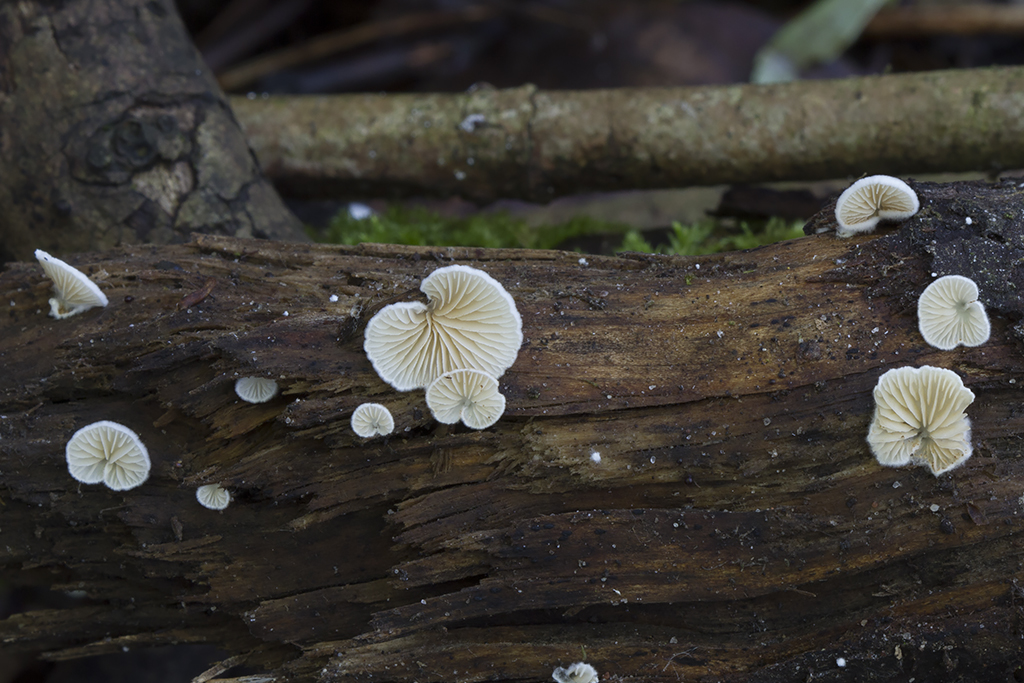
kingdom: Fungi
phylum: Basidiomycota
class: Agaricomycetes
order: Agaricales
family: Crepidotaceae
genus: Crepidotus
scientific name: Crepidotus cesatii
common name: almindelig muslingesvamp
